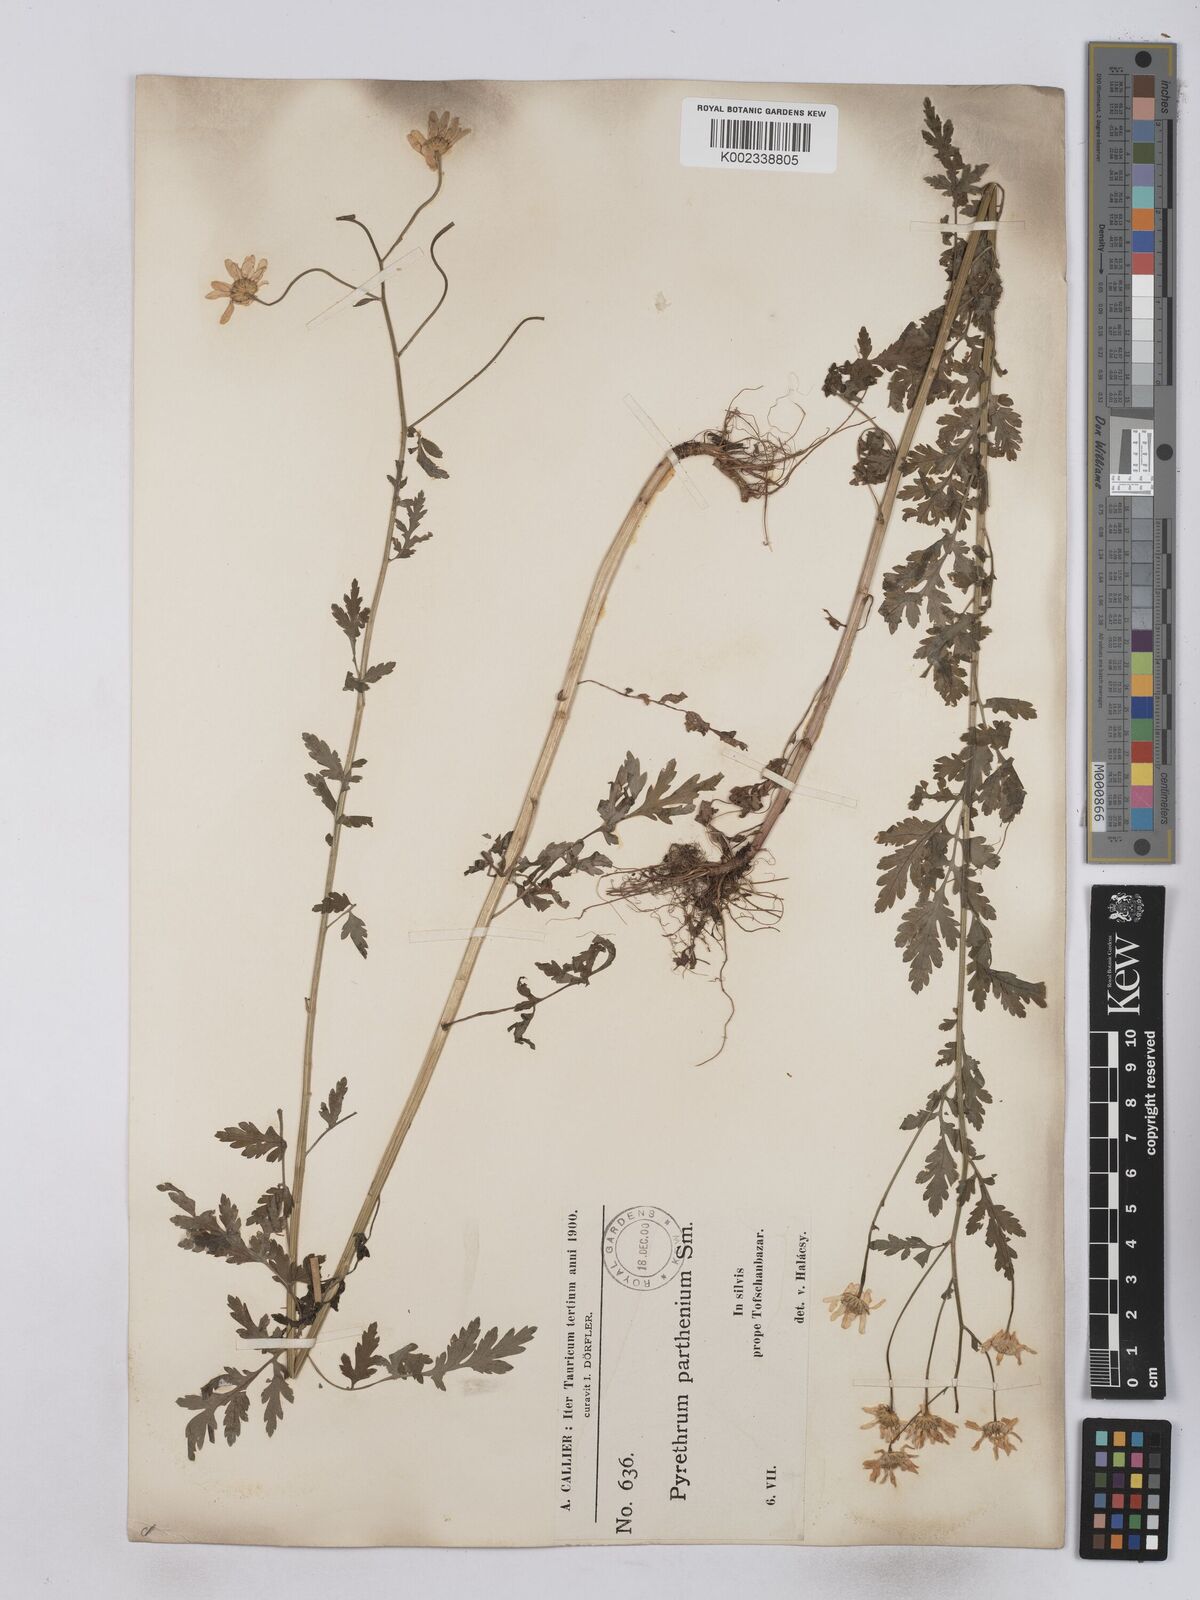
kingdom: Plantae
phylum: Tracheophyta
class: Magnoliopsida
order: Asterales
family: Asteraceae
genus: Tanacetum
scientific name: Tanacetum parthenium
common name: Feverfew
